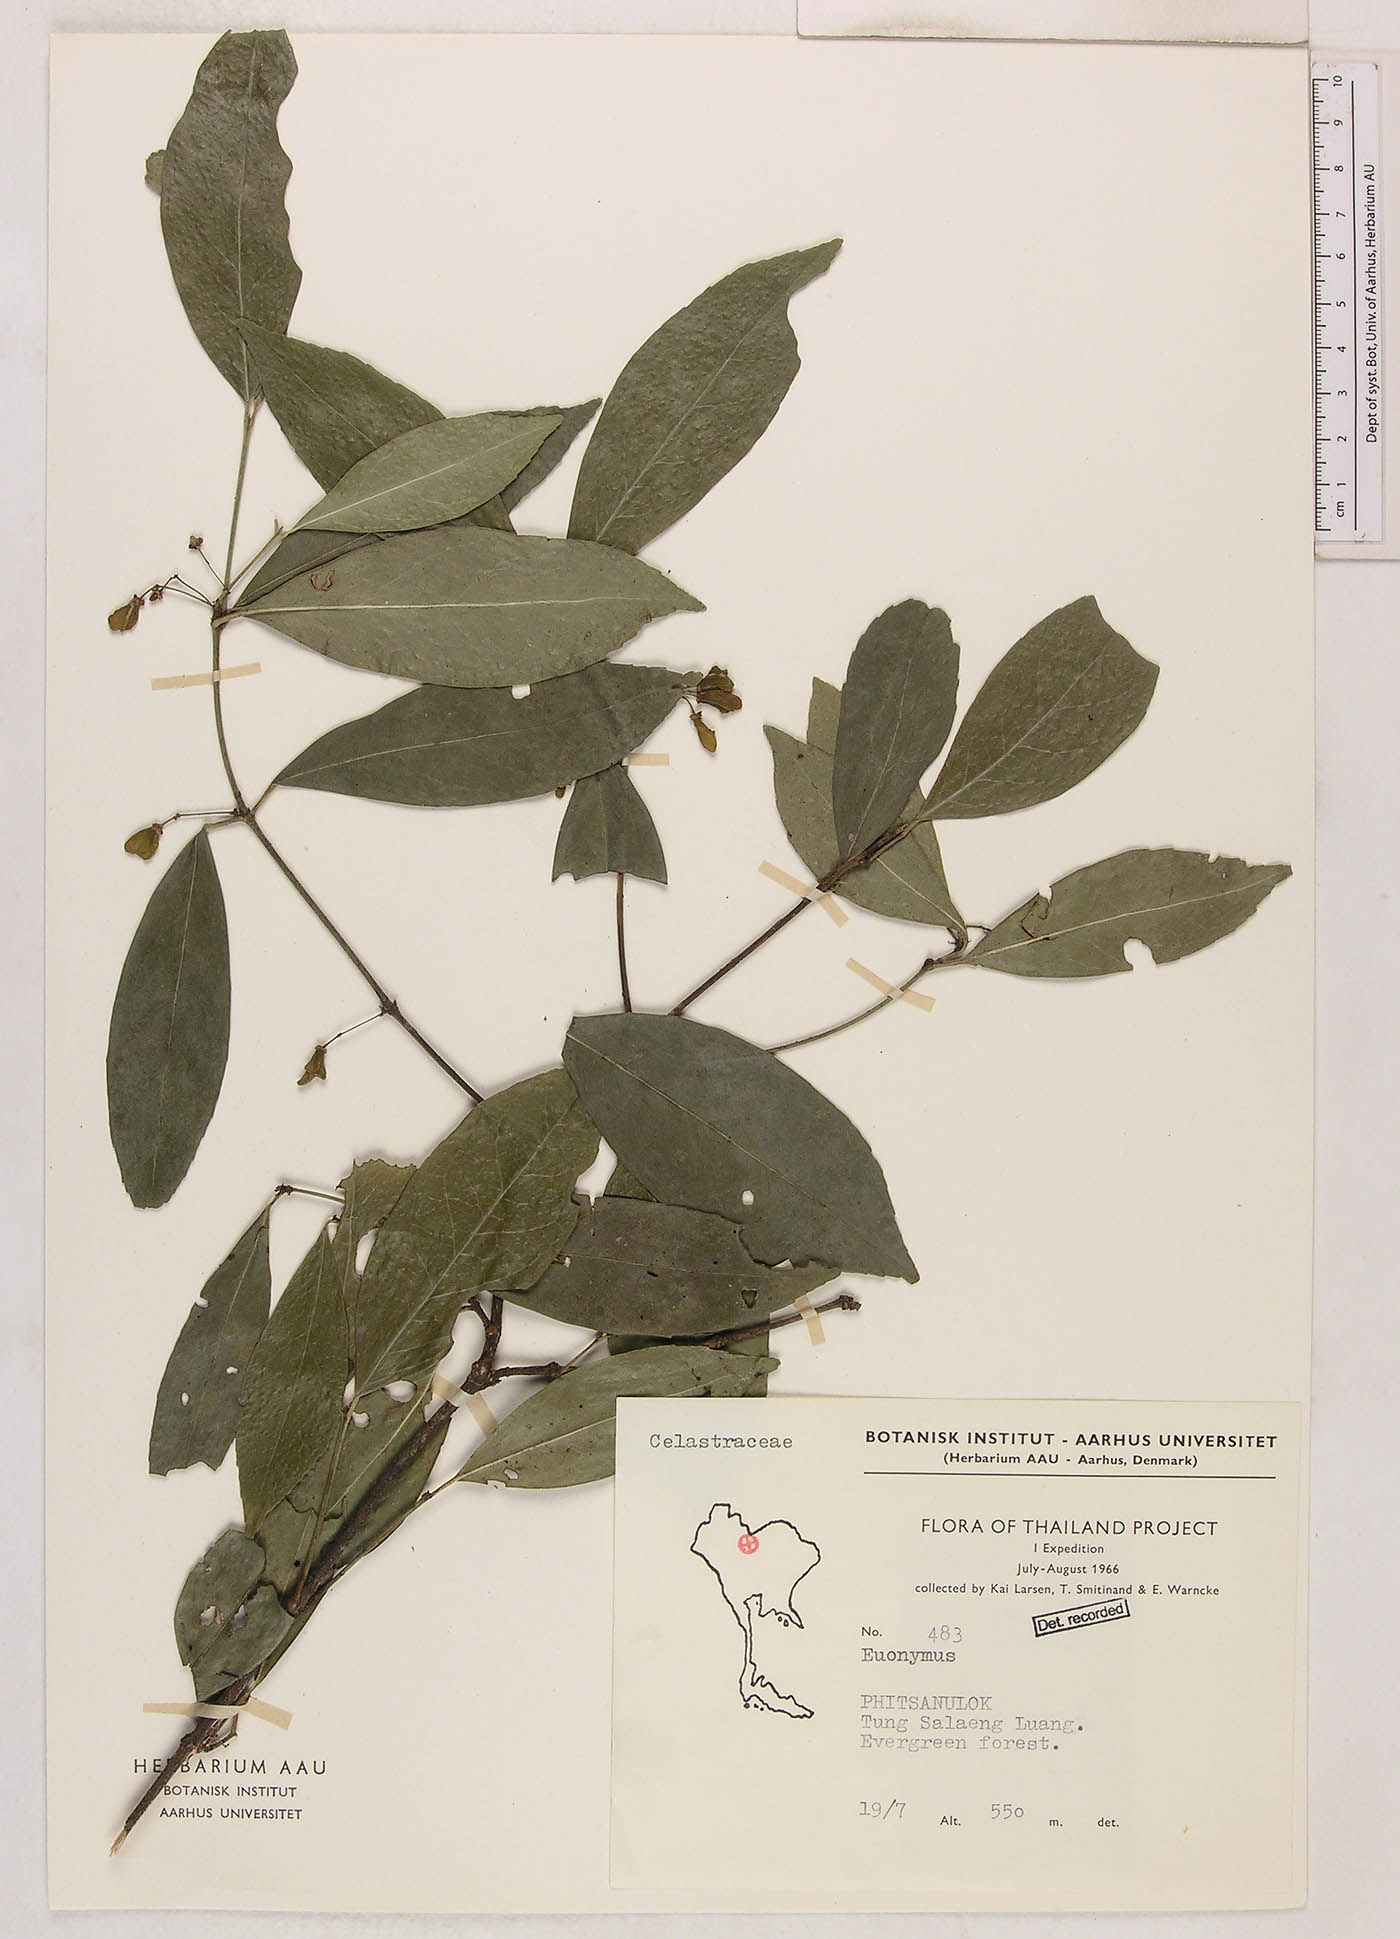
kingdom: Plantae
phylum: Tracheophyta
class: Magnoliopsida
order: Celastrales
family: Celastraceae
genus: Euonymus
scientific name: Euonymus
